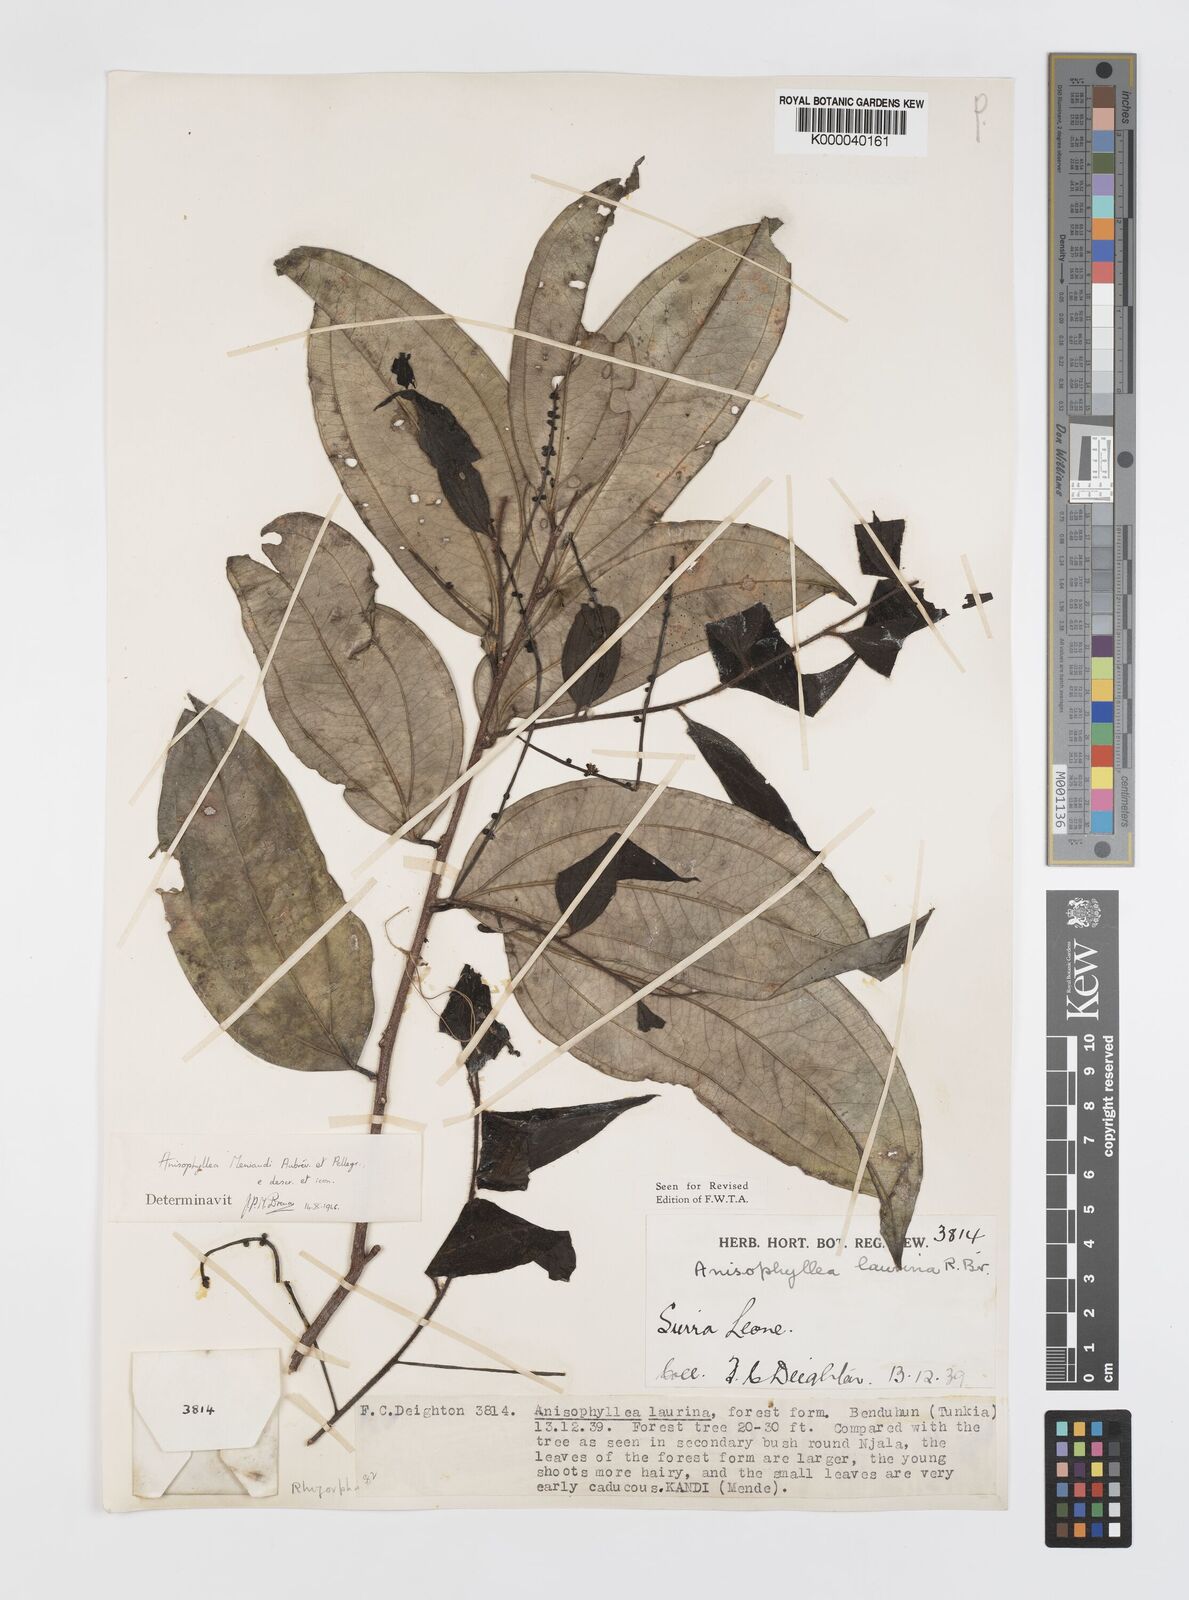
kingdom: Plantae
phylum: Tracheophyta
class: Magnoliopsida
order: Cucurbitales
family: Anisophylleaceae
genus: Anisophyllea
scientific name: Anisophyllea
